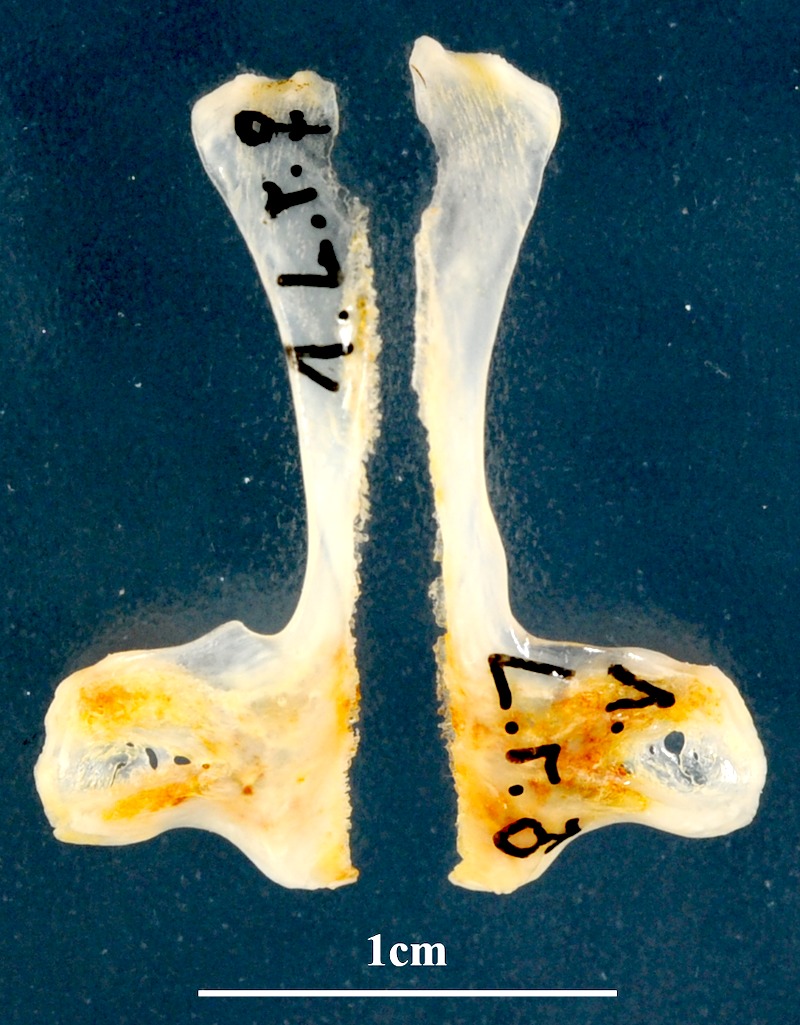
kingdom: Animalia
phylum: Chordata
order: Mugiliformes
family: Mugilidae
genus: Chelon
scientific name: Chelon ramada
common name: Thinlip grey mullet
